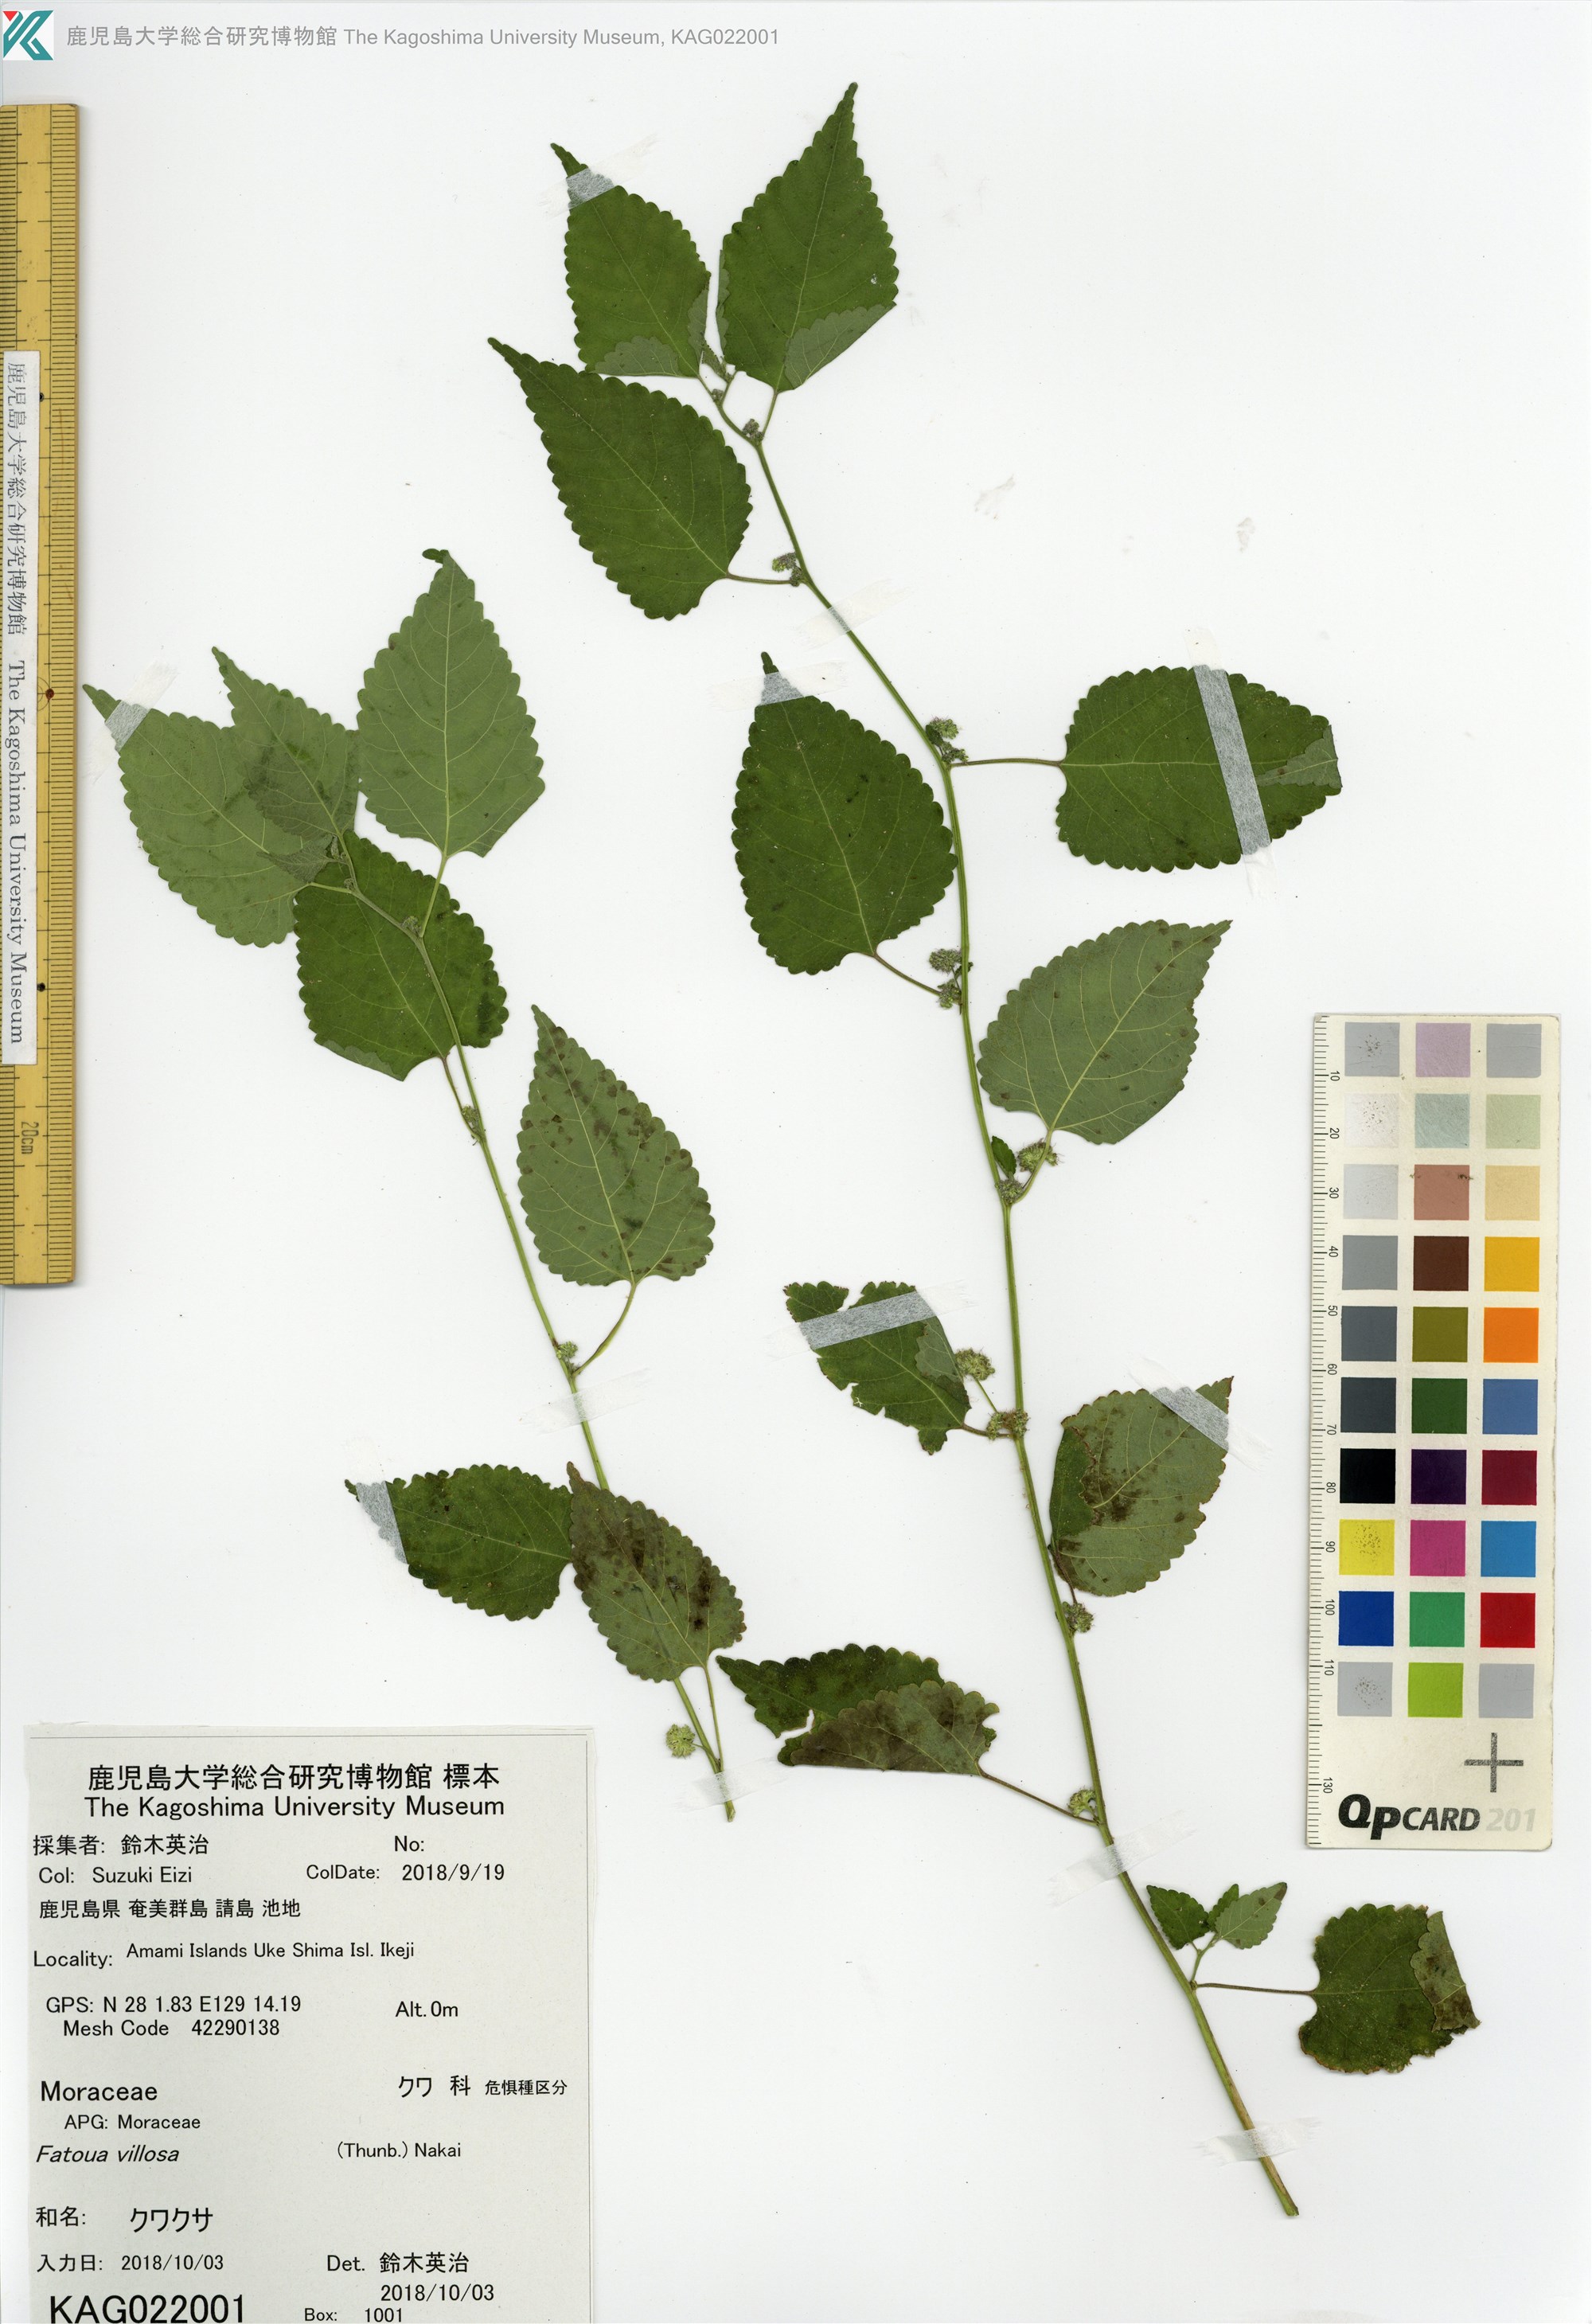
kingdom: Plantae
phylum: Tracheophyta
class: Magnoliopsida
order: Rosales
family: Moraceae
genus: Fatoua
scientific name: Fatoua villosa
